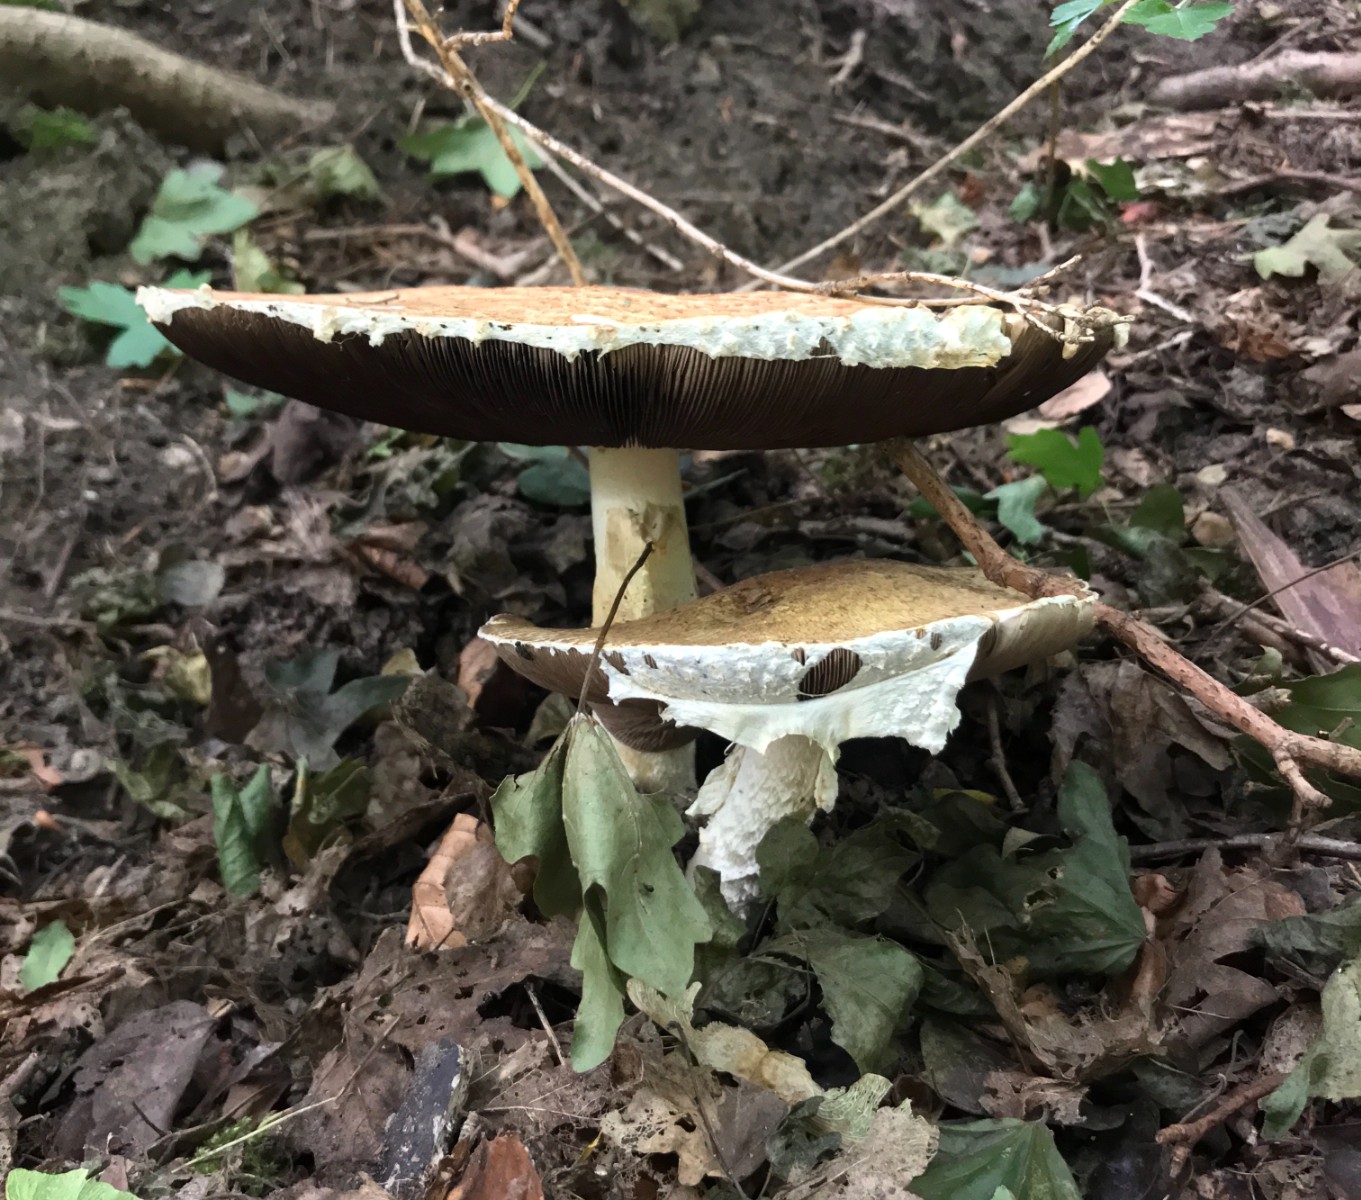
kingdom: Fungi
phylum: Basidiomycota
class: Agaricomycetes
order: Agaricales
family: Agaricaceae
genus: Agaricus
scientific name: Agaricus augustus
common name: prægtig champignon
